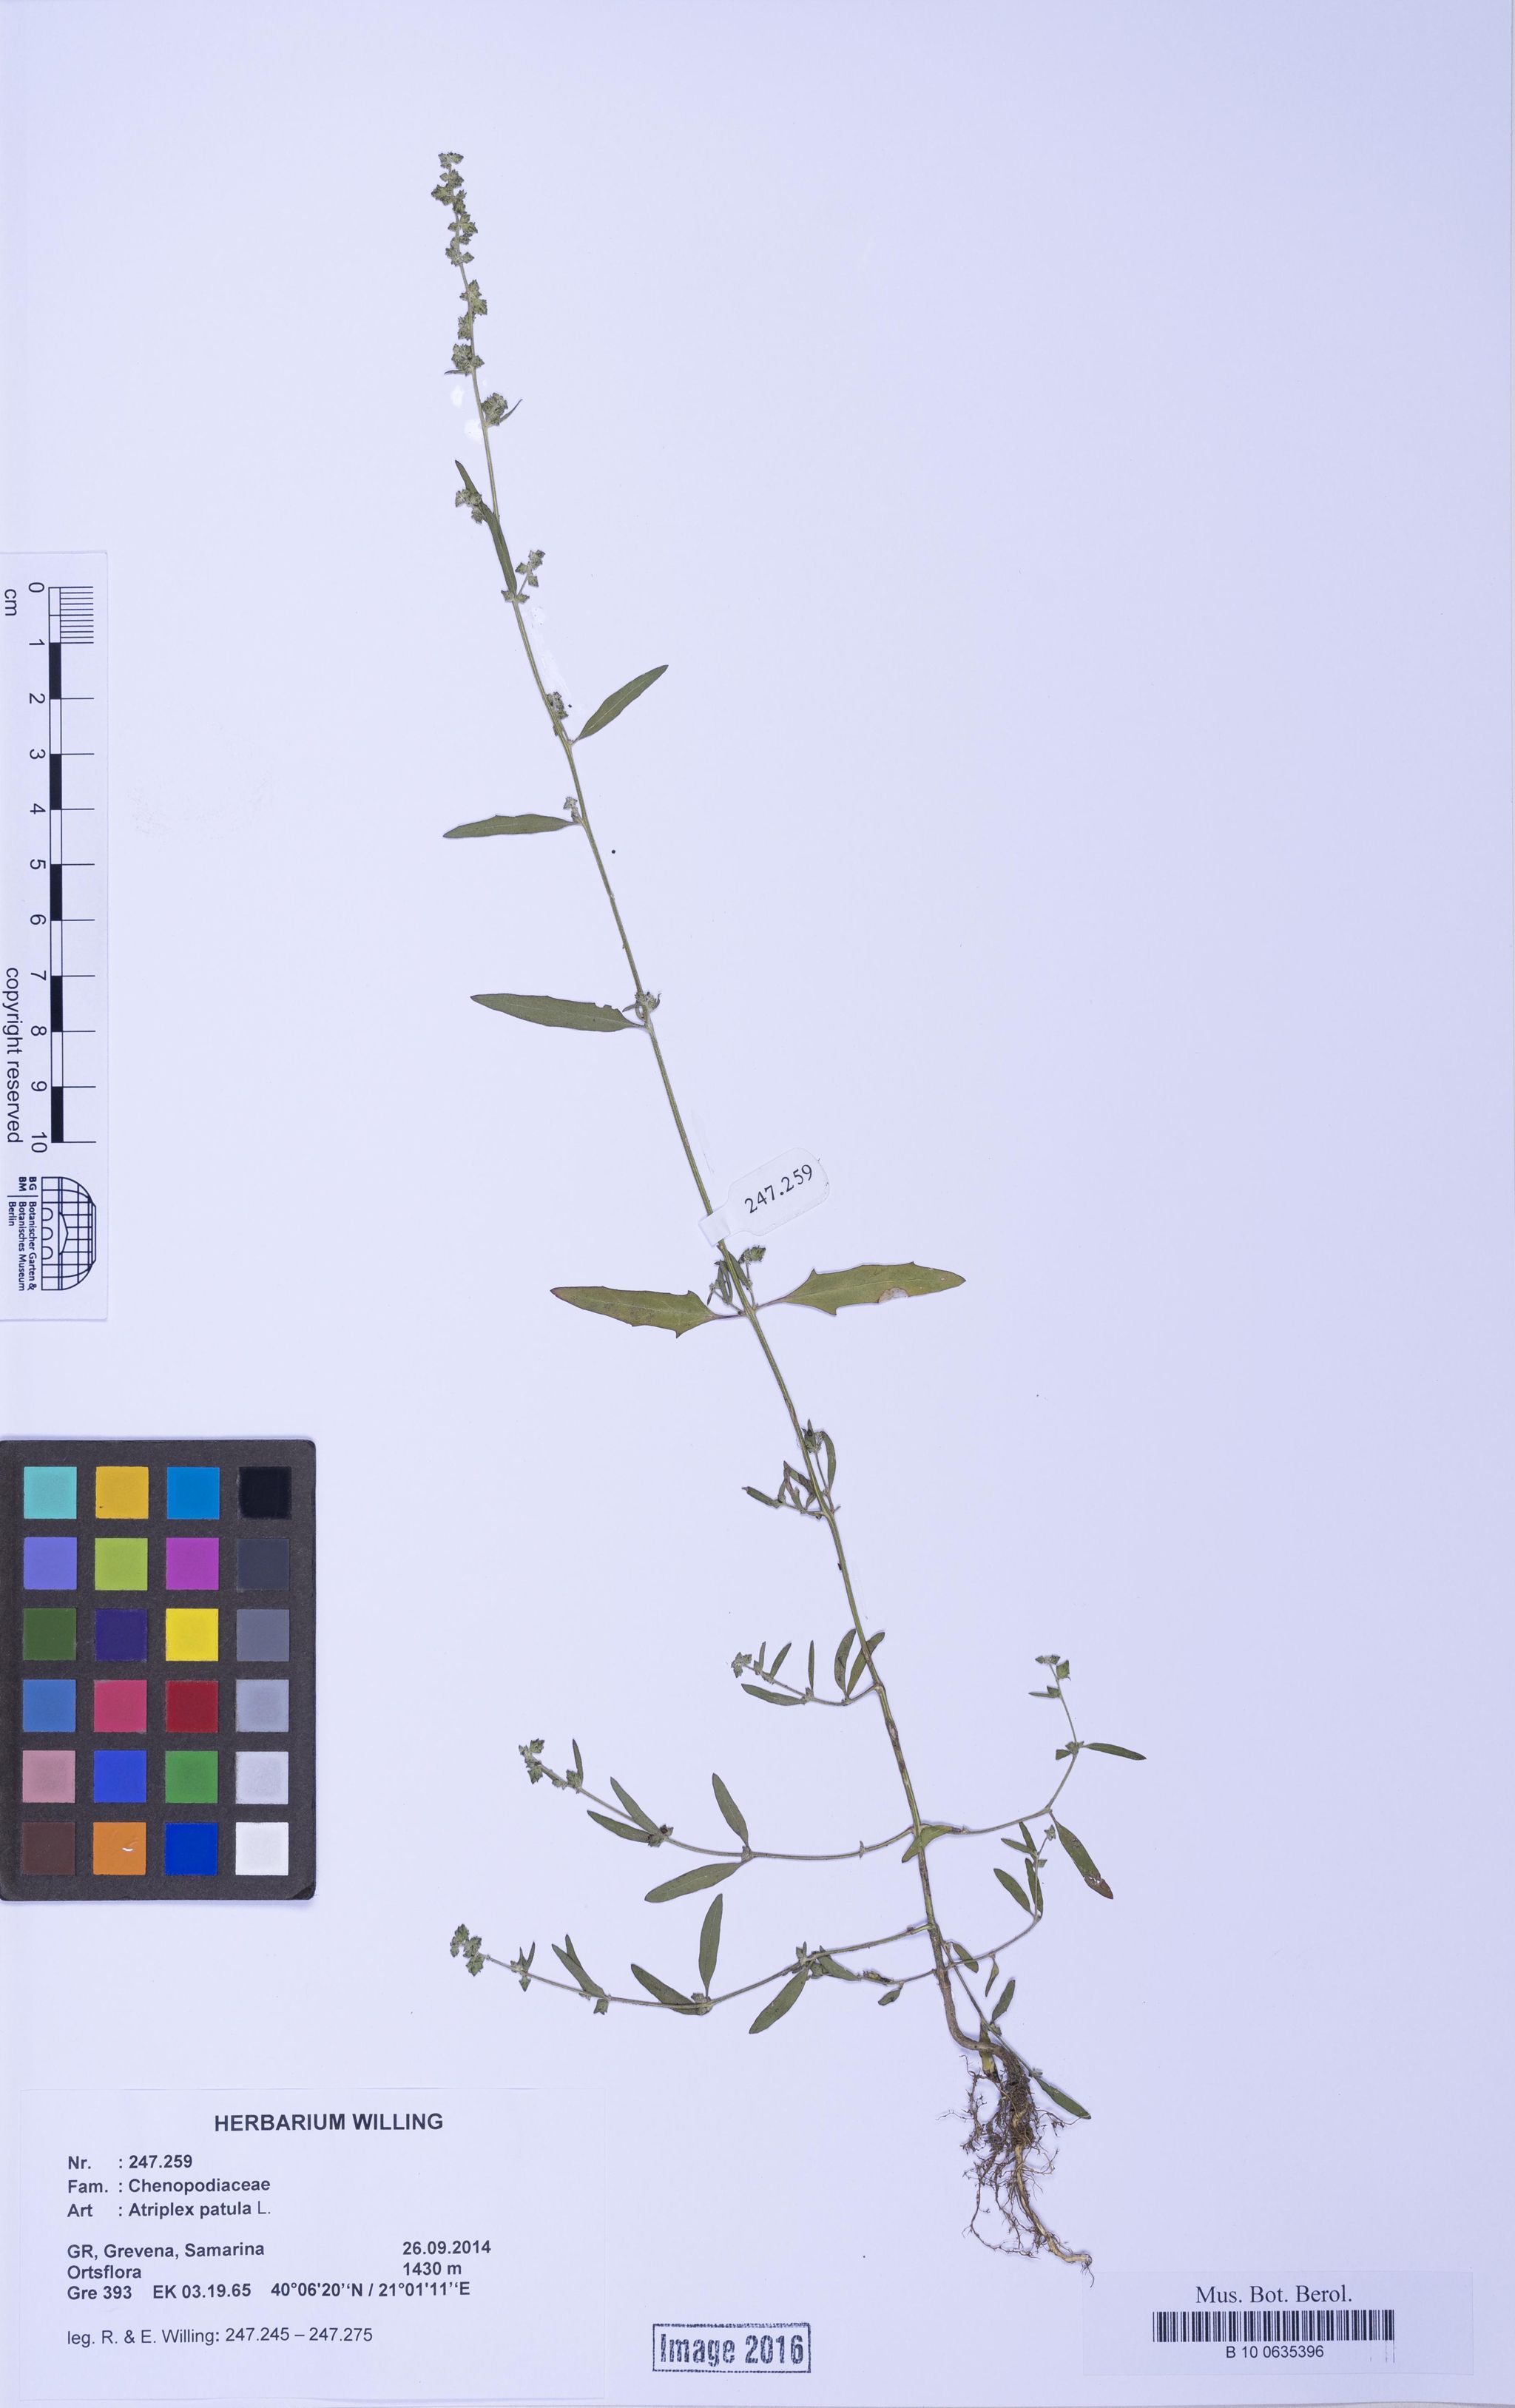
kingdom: Plantae
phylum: Tracheophyta
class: Magnoliopsida
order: Caryophyllales
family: Amaranthaceae
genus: Atriplex
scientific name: Atriplex patula
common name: Common orache
